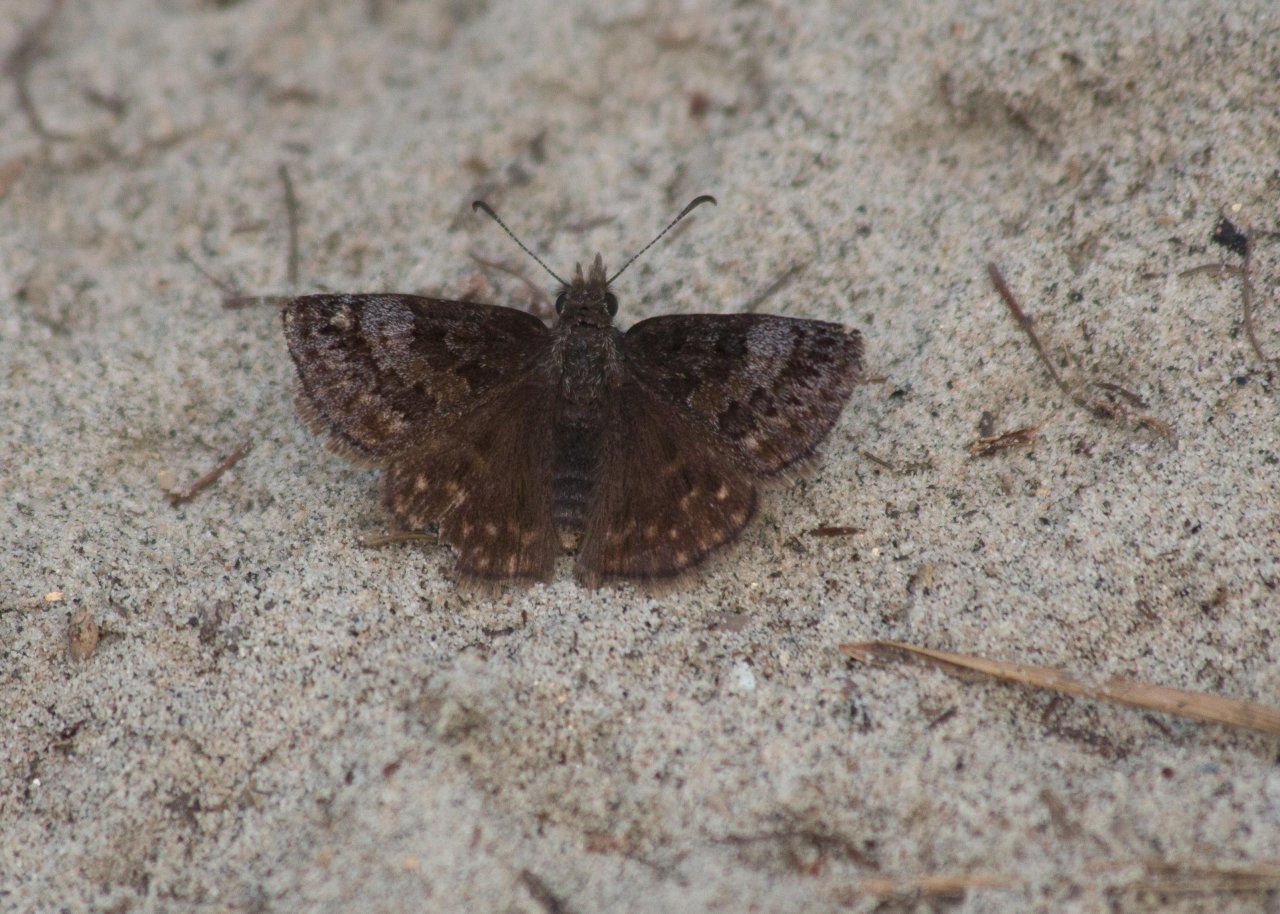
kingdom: Animalia
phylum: Arthropoda
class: Insecta
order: Lepidoptera
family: Hesperiidae
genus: Erynnis
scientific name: Erynnis icelus
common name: Dreamy Duskywing
